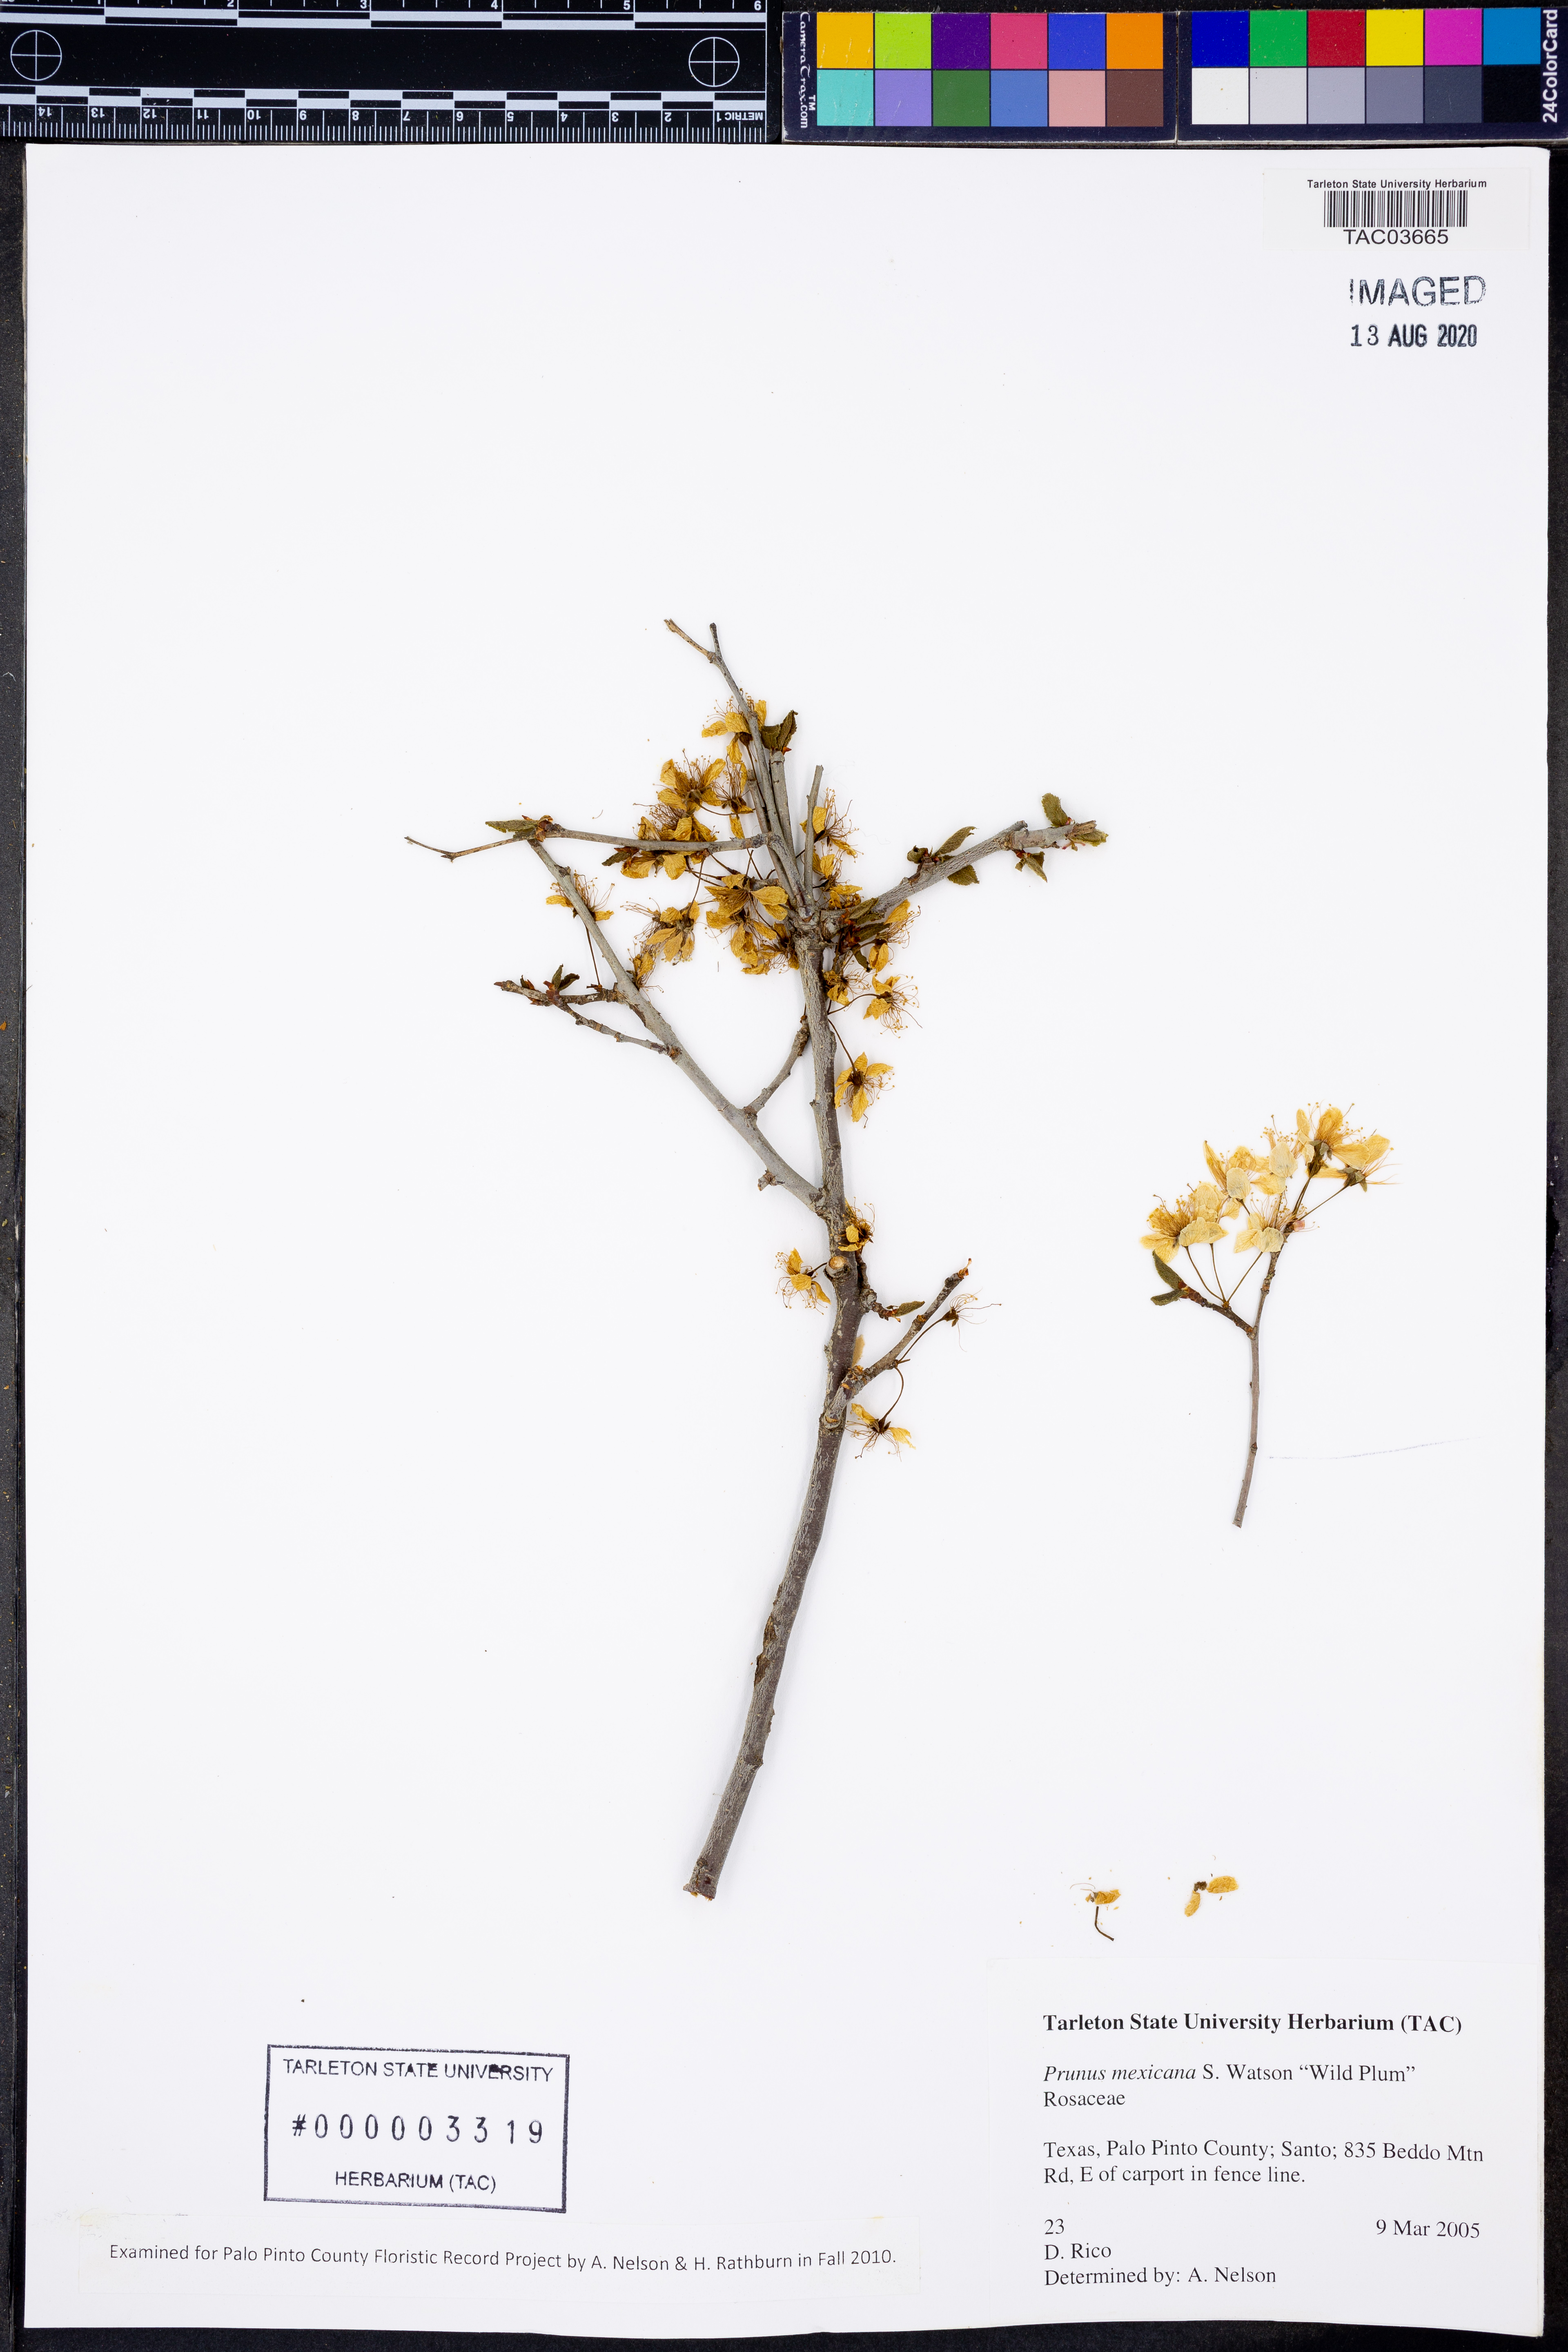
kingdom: Plantae
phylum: Tracheophyta
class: Magnoliopsida
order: Rosales
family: Rosaceae
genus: Prunus
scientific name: Prunus mexicana
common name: Mexican plum
